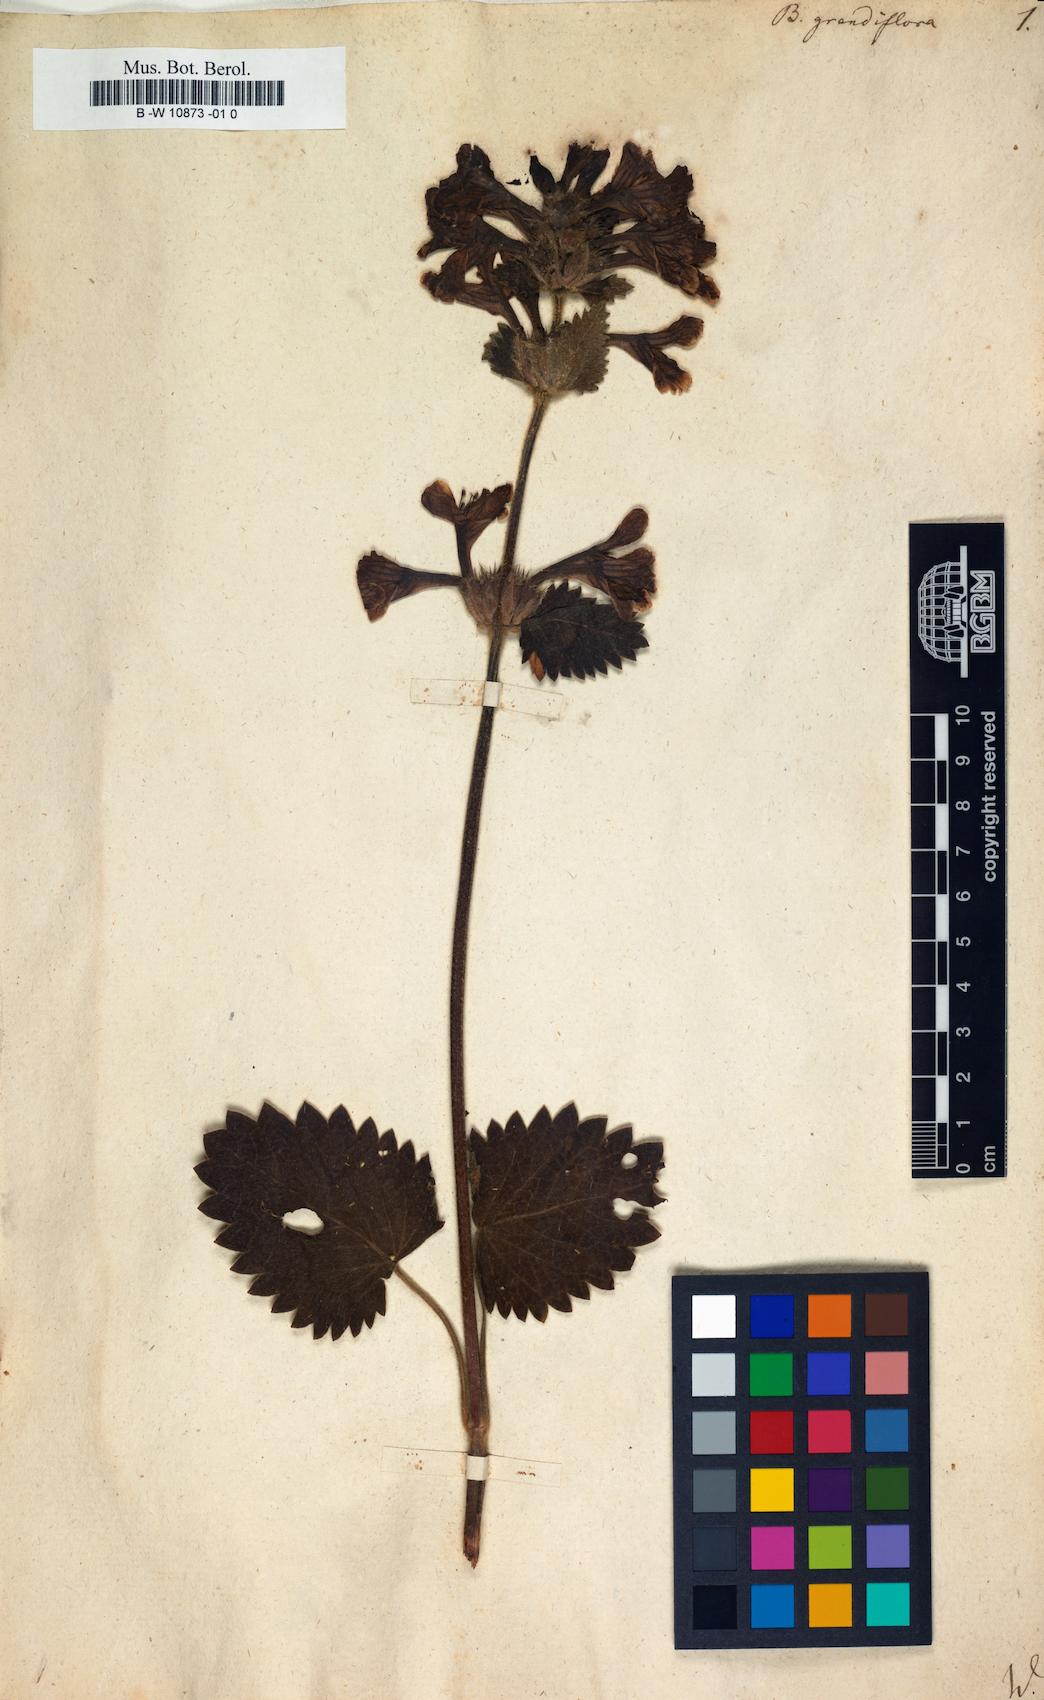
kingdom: Plantae
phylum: Tracheophyta
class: Magnoliopsida
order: Lamiales
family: Lamiaceae
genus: Betonica
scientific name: Betonica
